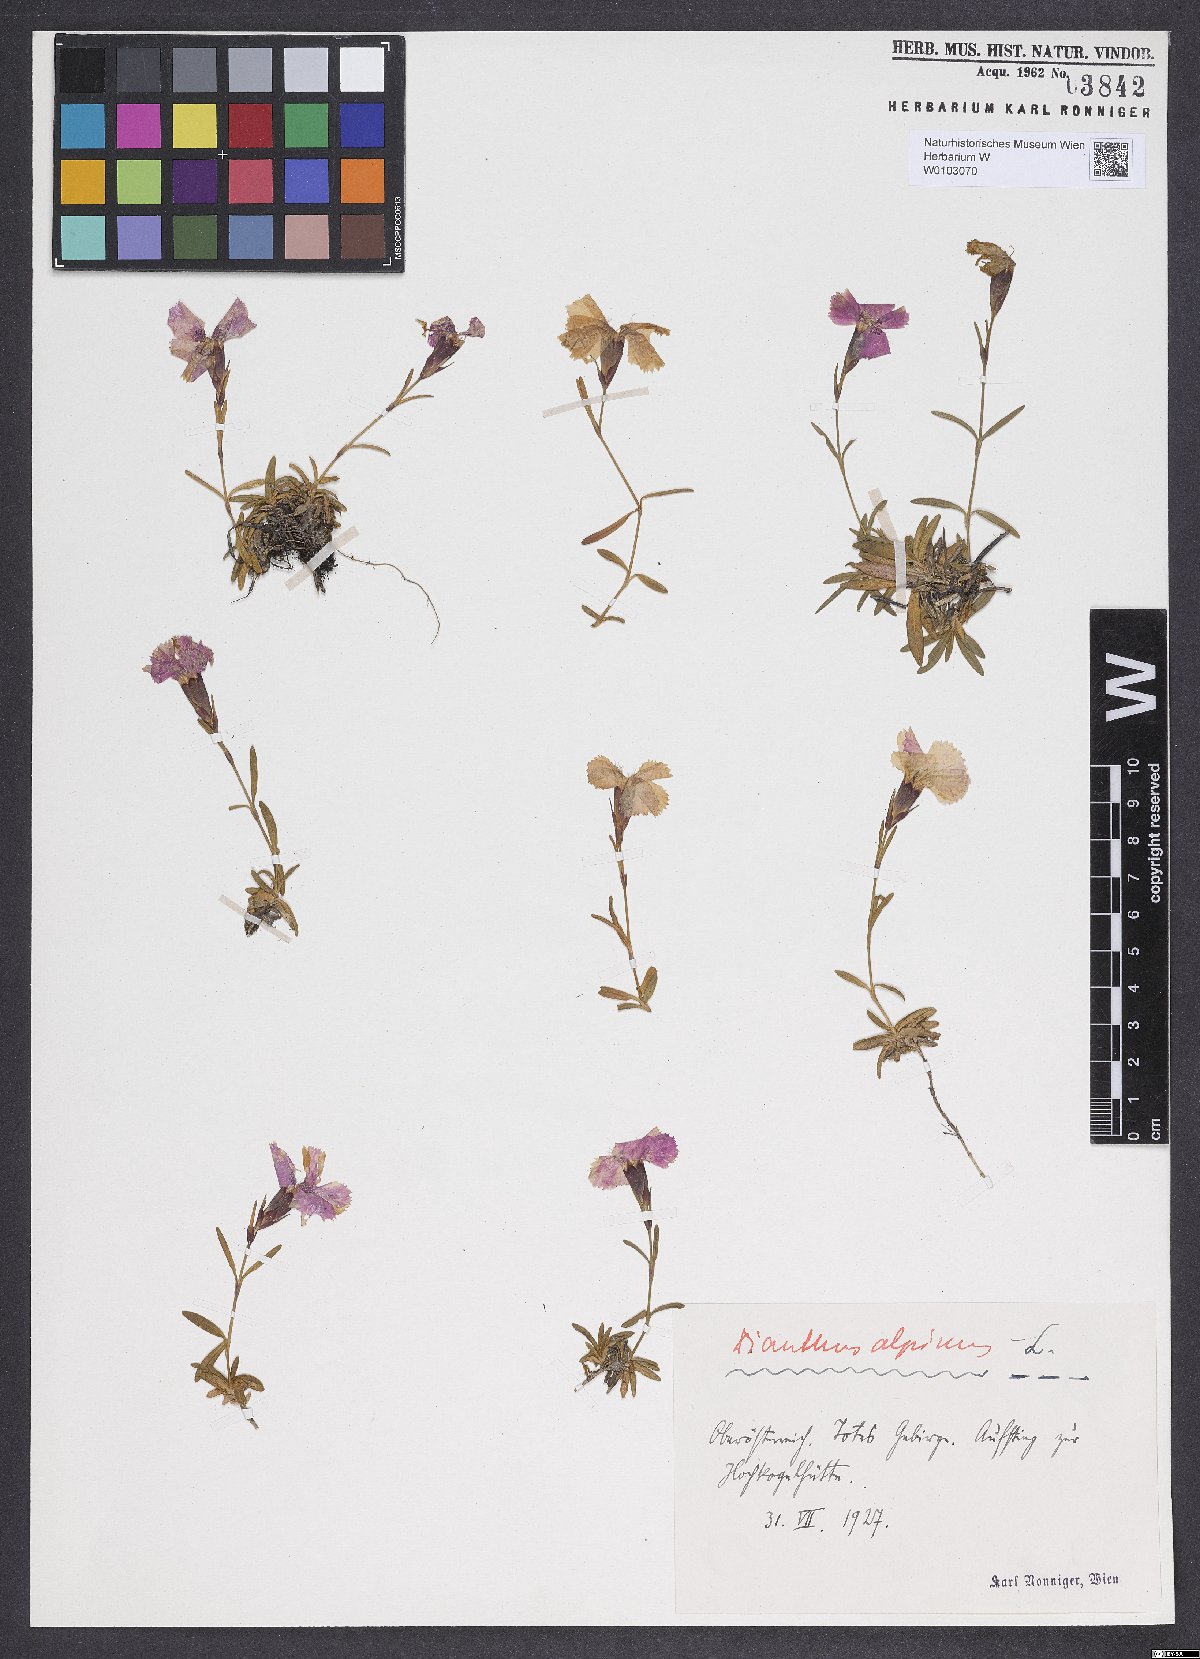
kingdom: Plantae
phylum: Tracheophyta
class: Magnoliopsida
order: Caryophyllales
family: Caryophyllaceae
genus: Dianthus
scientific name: Dianthus alpinus
